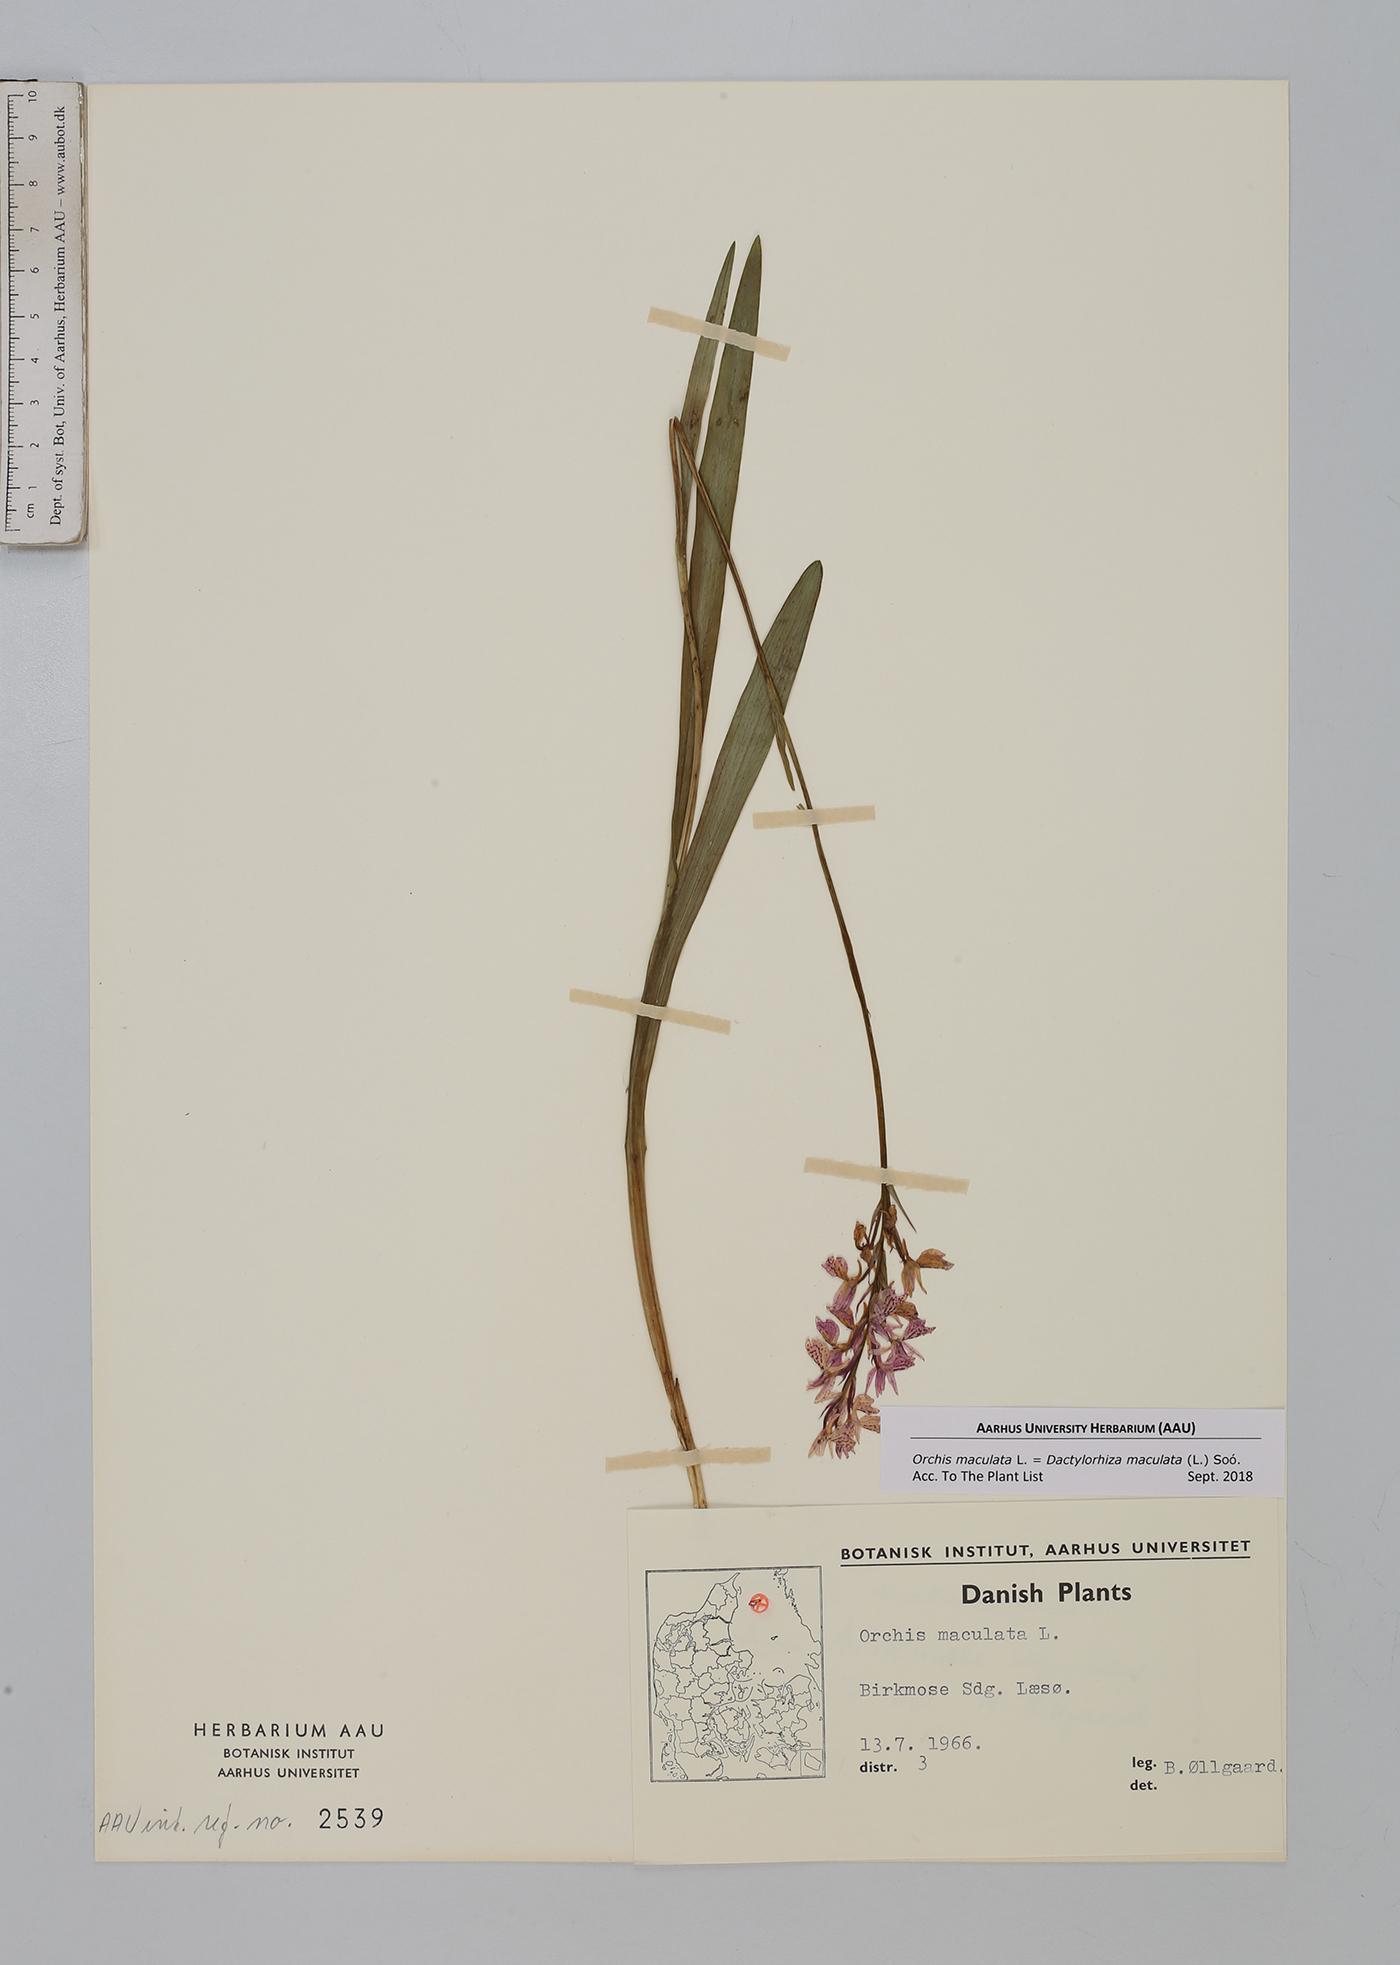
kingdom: Plantae
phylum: Tracheophyta
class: Liliopsida
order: Asparagales
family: Orchidaceae
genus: Dactylorhiza
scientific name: Dactylorhiza maculata
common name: Heath spotted-orchid
